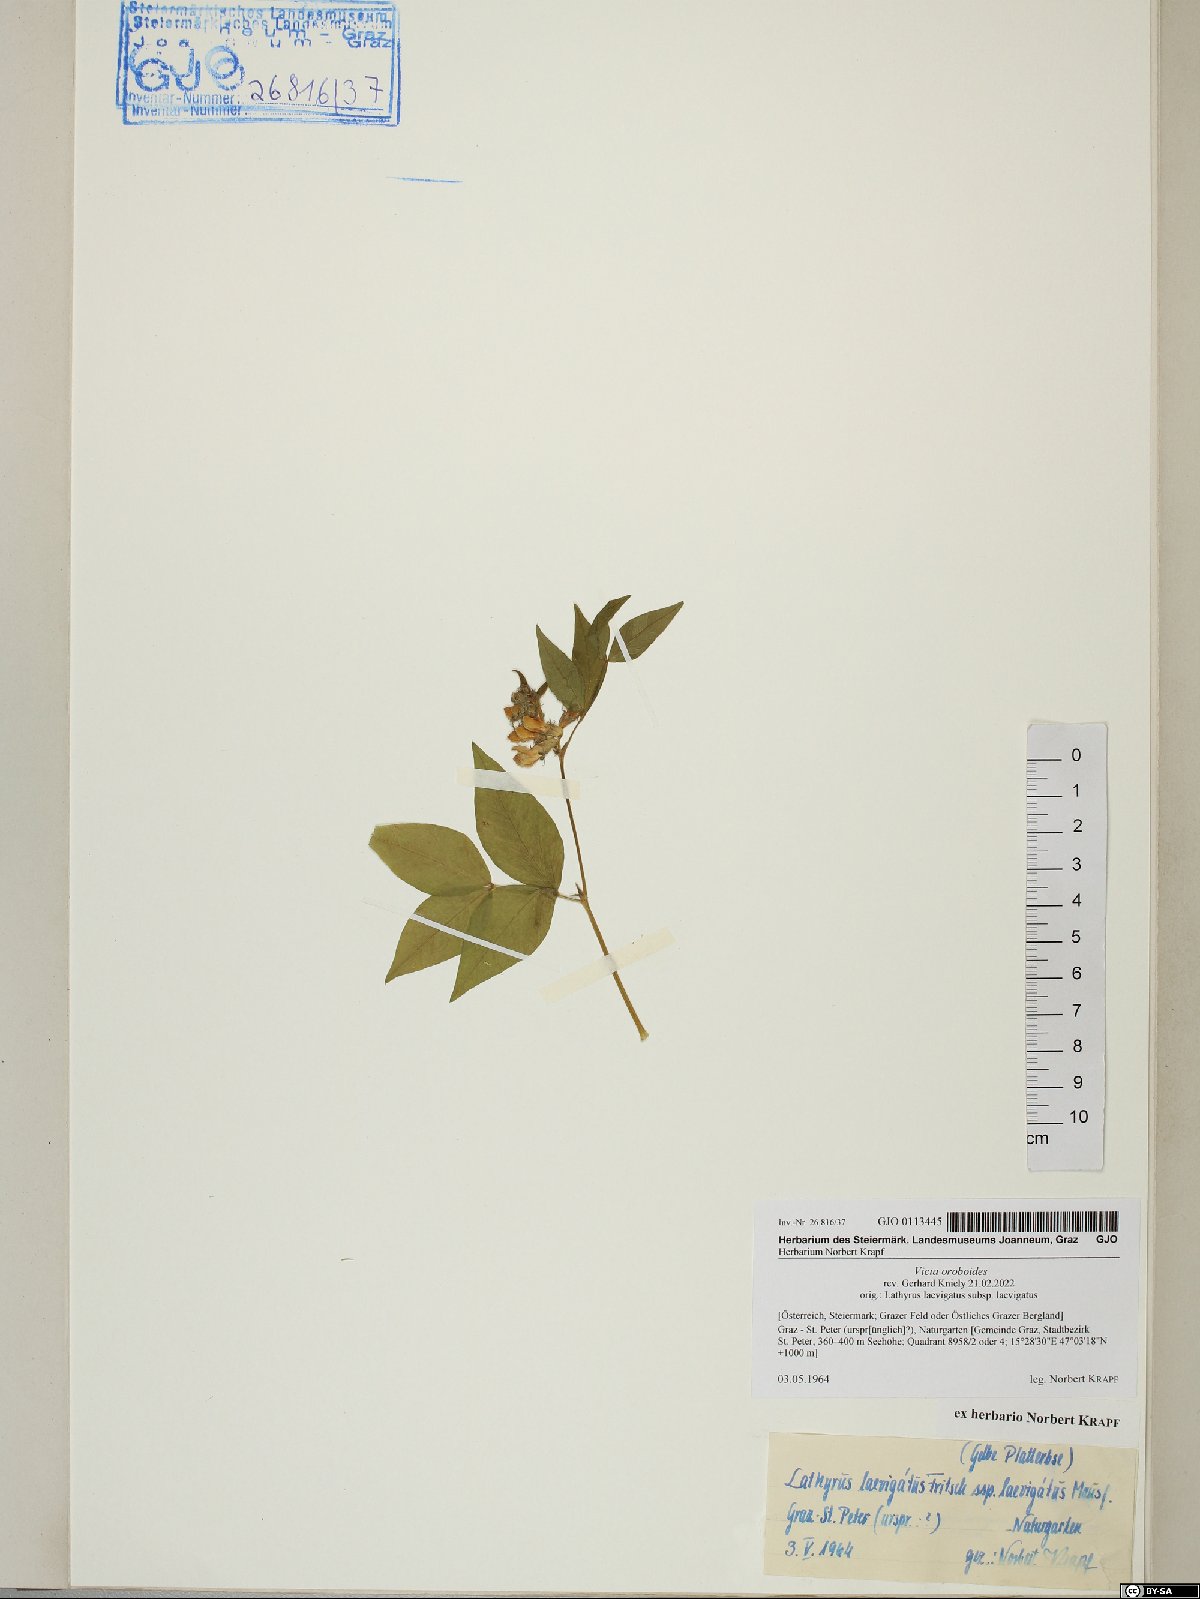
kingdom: Plantae
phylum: Tracheophyta
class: Magnoliopsida
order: Fabales
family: Fabaceae
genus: Vicia
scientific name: Vicia oroboides
